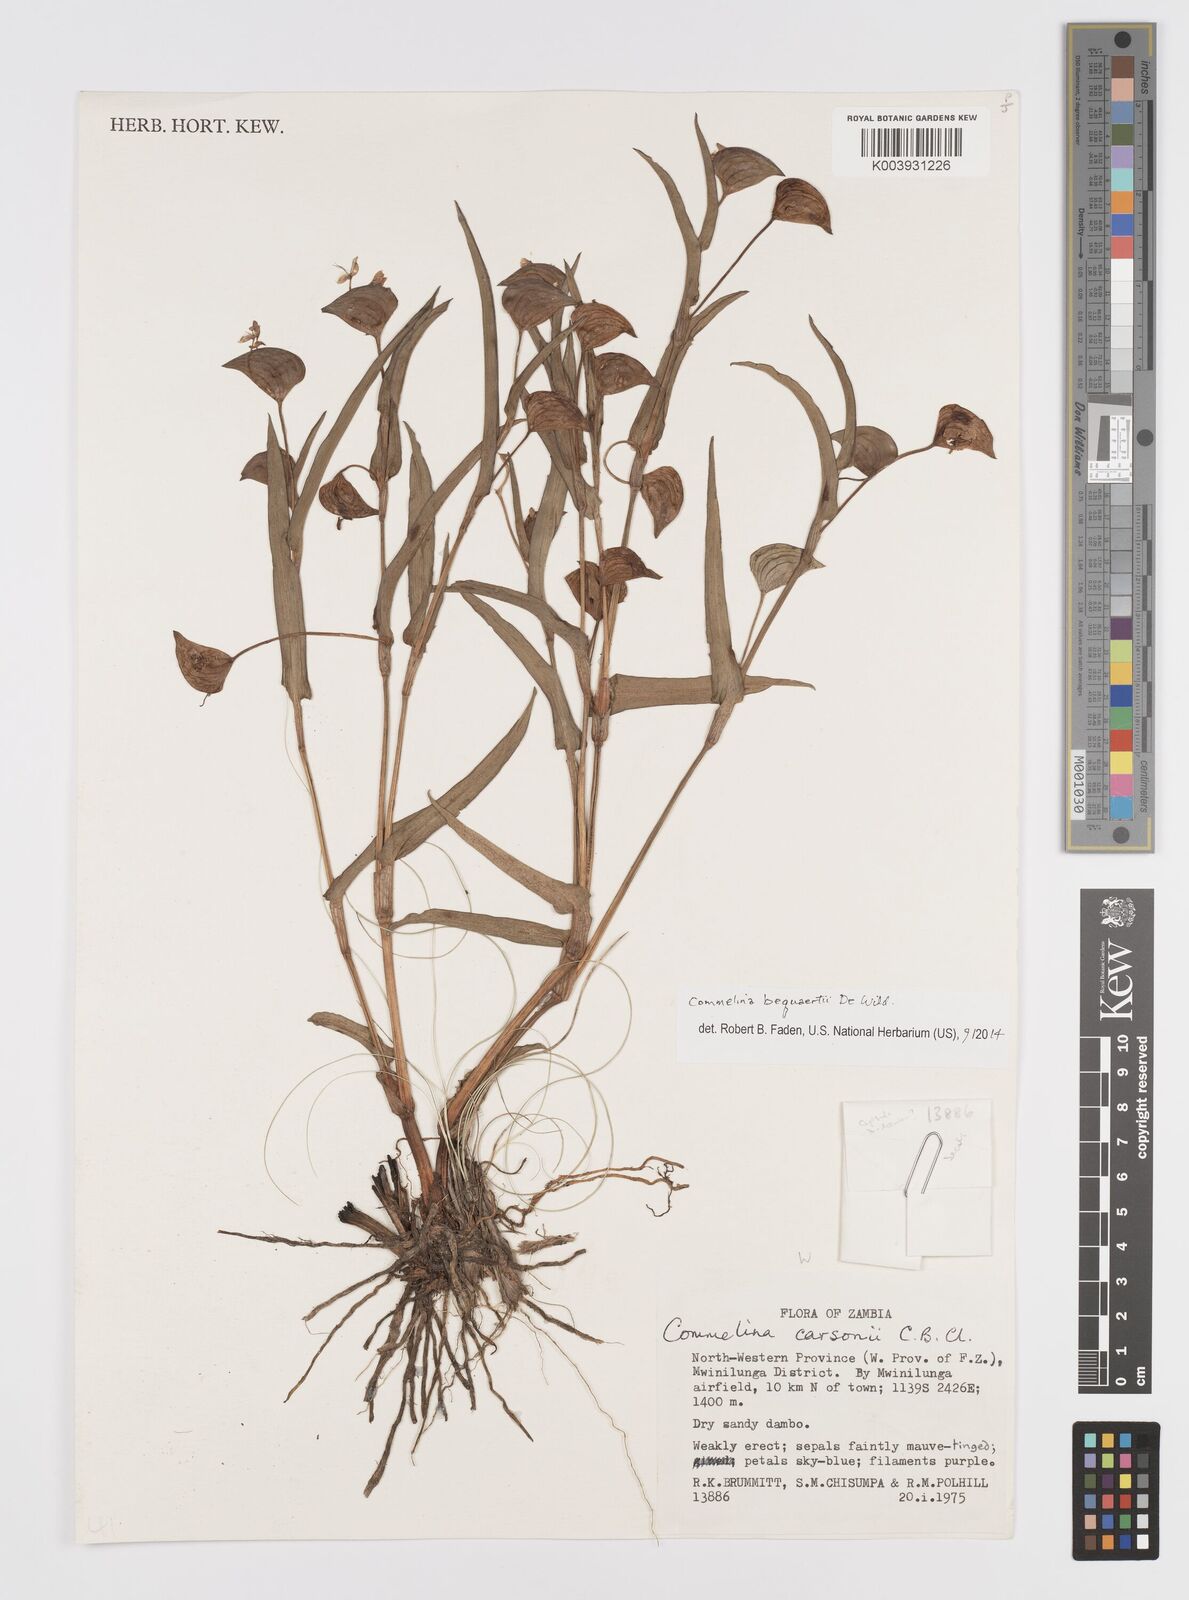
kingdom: Plantae
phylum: Tracheophyta
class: Liliopsida
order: Commelinales
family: Commelinaceae
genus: Commelina
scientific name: Commelina bequaertii
